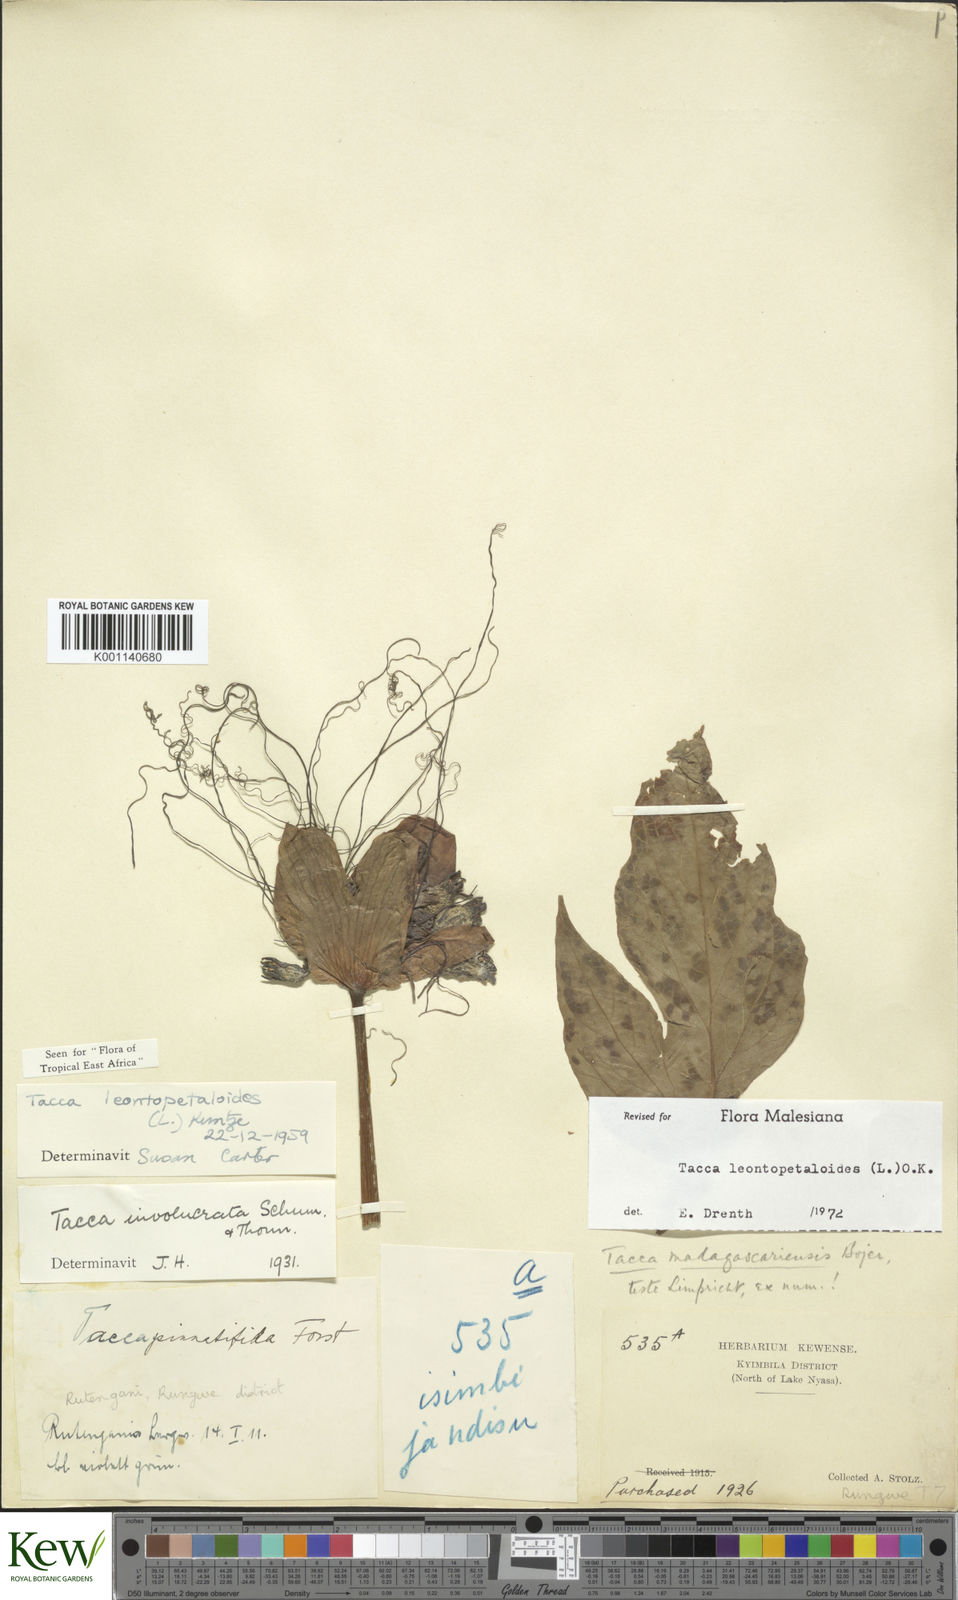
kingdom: Plantae
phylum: Tracheophyta
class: Liliopsida
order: Dioscoreales
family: Dioscoreaceae
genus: Tacca
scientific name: Tacca leontopetaloides
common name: Arrowroot
